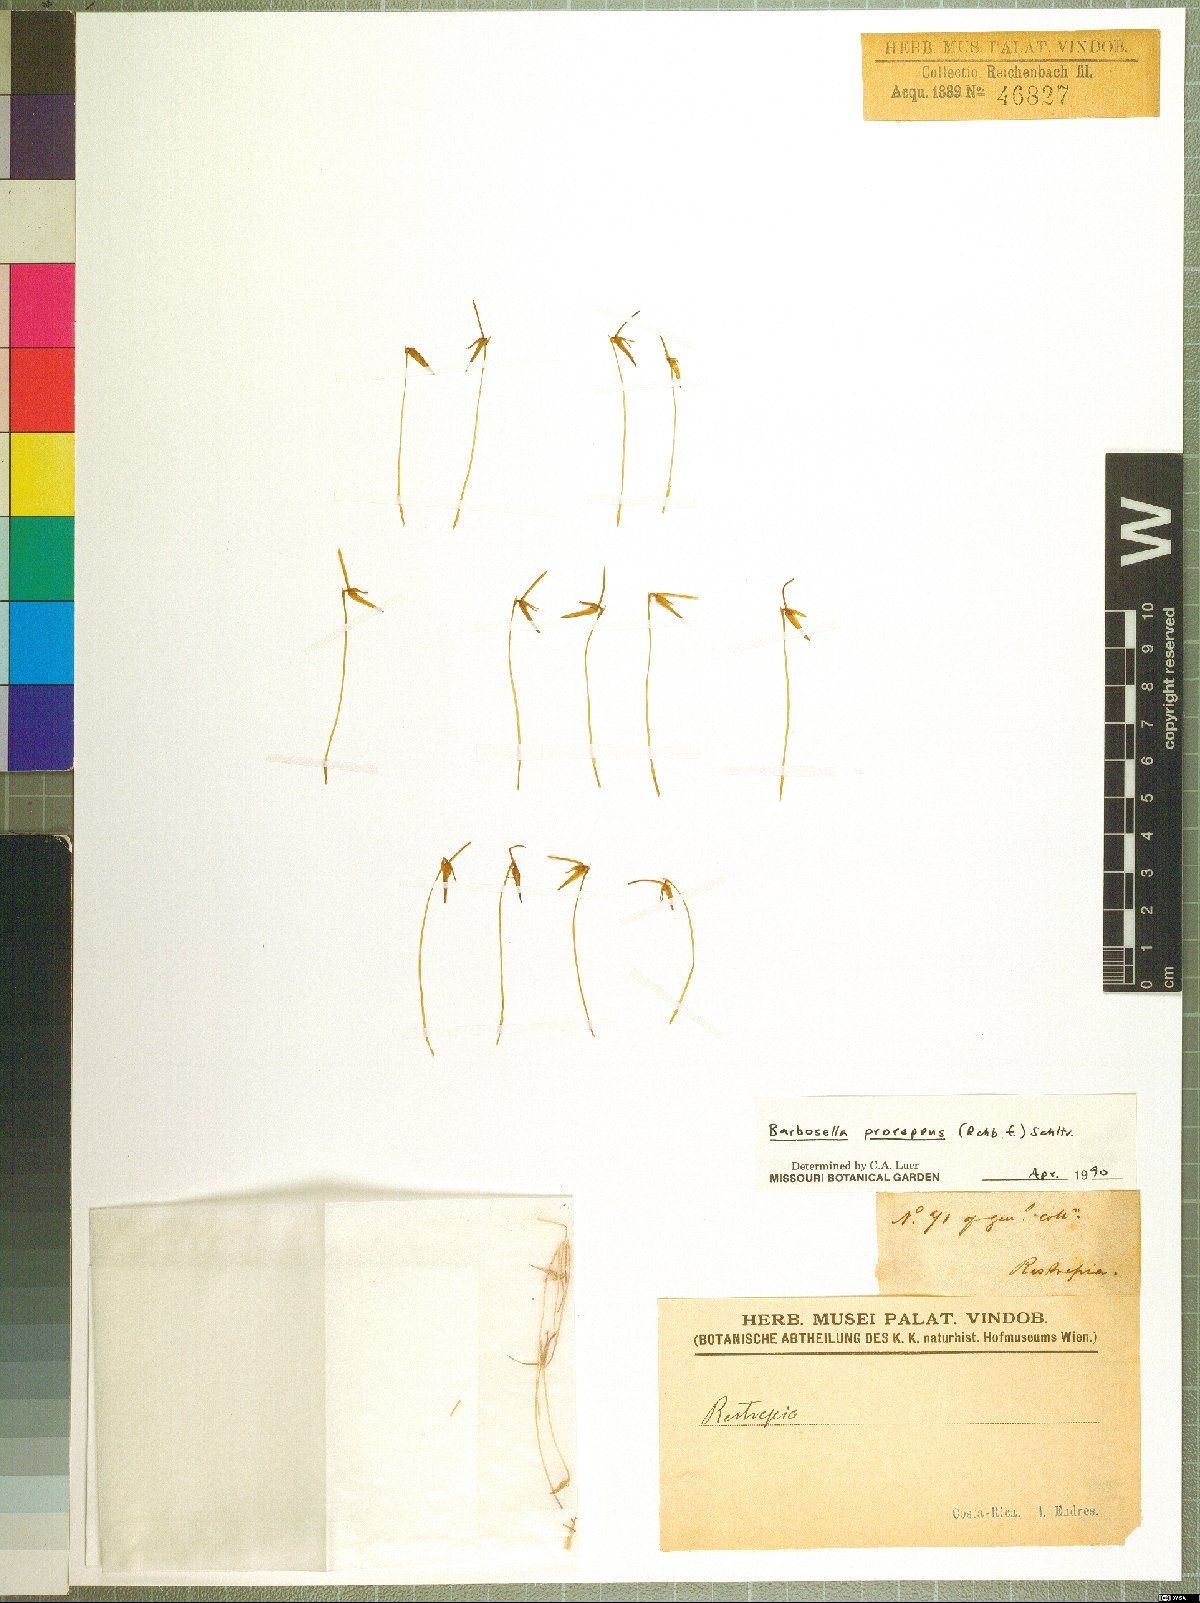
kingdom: Plantae
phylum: Tracheophyta
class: Liliopsida
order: Asparagales
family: Orchidaceae
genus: Barbosella
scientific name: Barbosella prorepens
